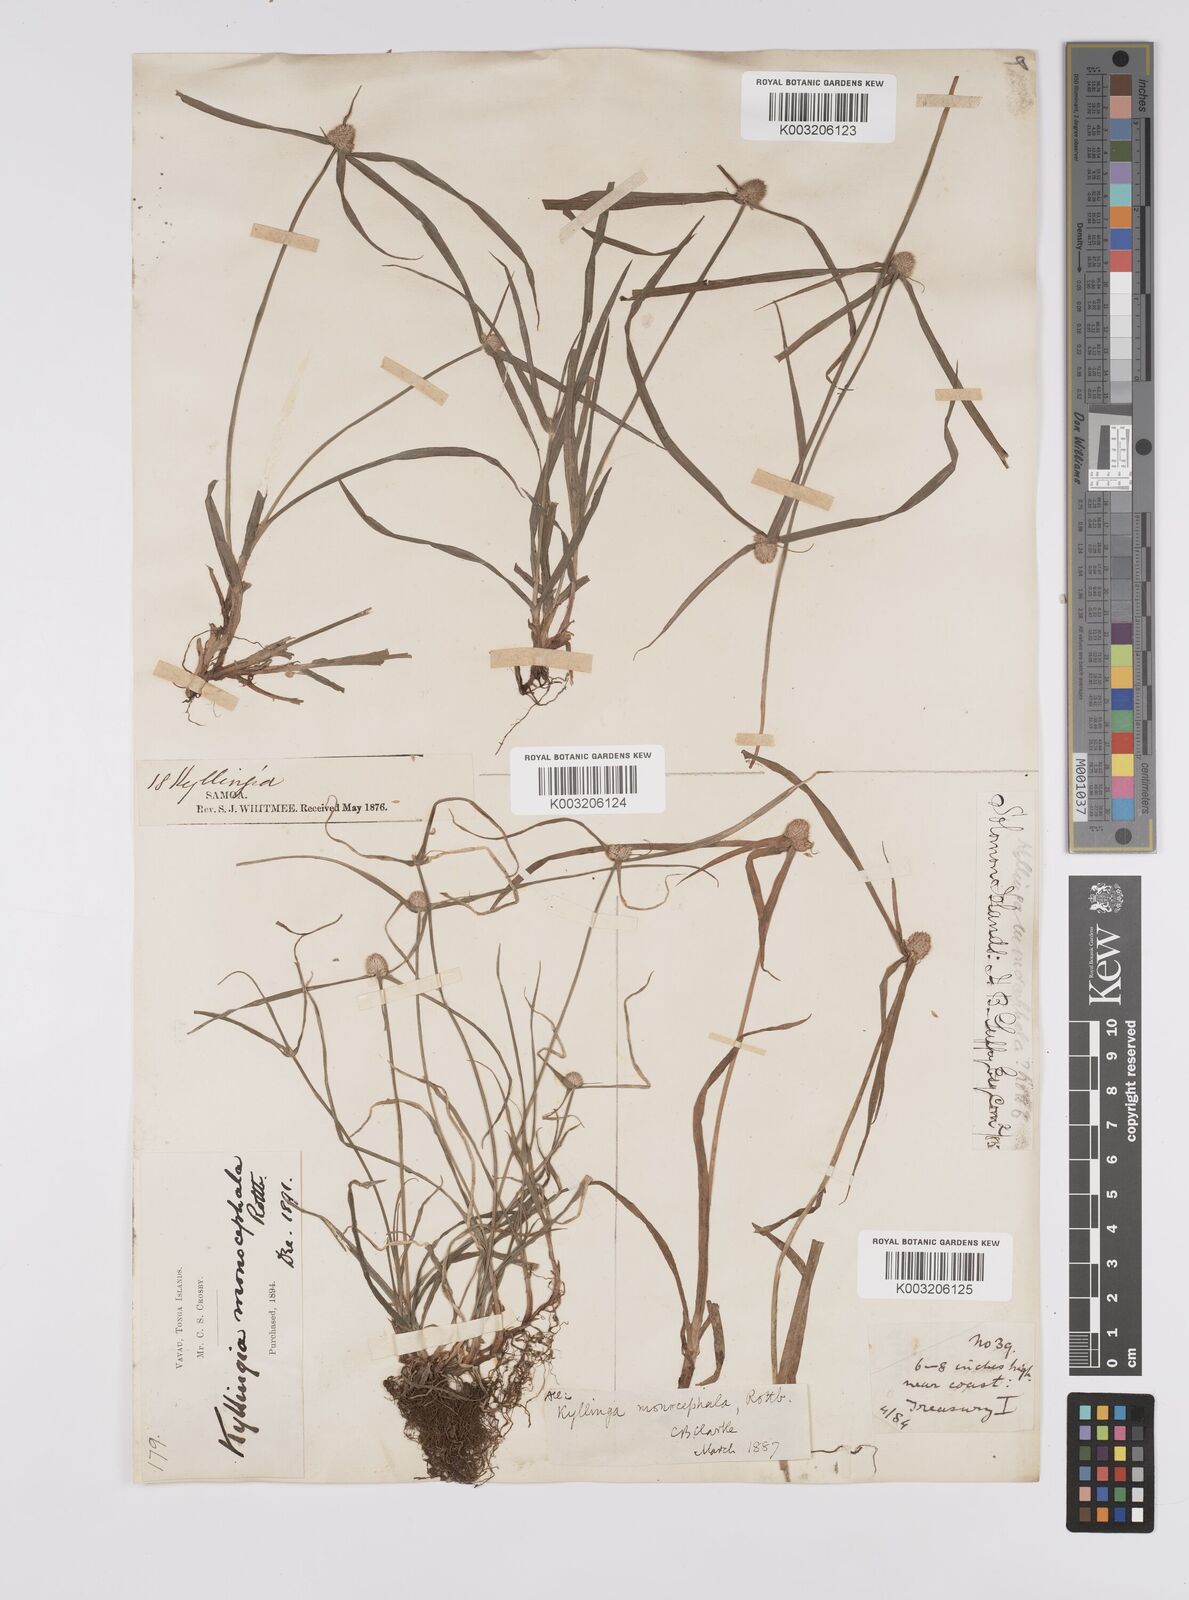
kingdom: Plantae
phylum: Tracheophyta
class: Liliopsida
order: Poales
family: Cyperaceae
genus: Cyperus
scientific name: Cyperus nemoralis
